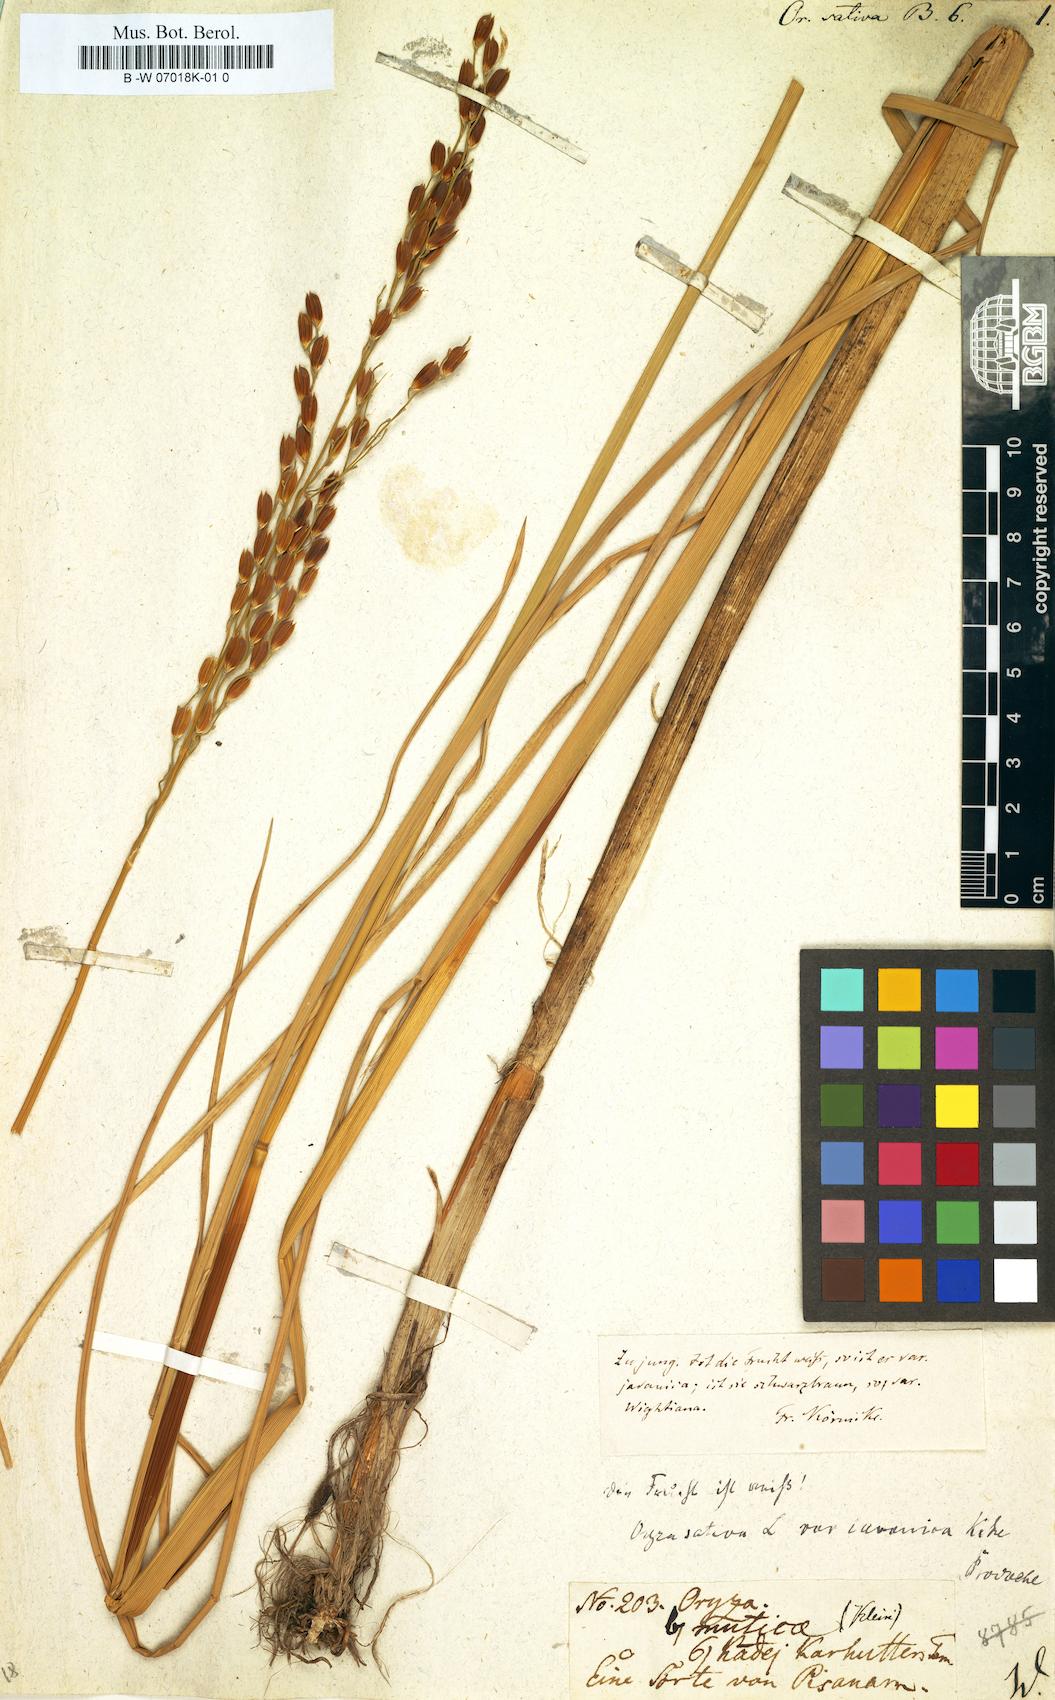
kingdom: Plantae
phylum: Tracheophyta
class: Liliopsida
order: Poales
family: Poaceae
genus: Oryza
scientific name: Oryza sativa
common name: Rice
